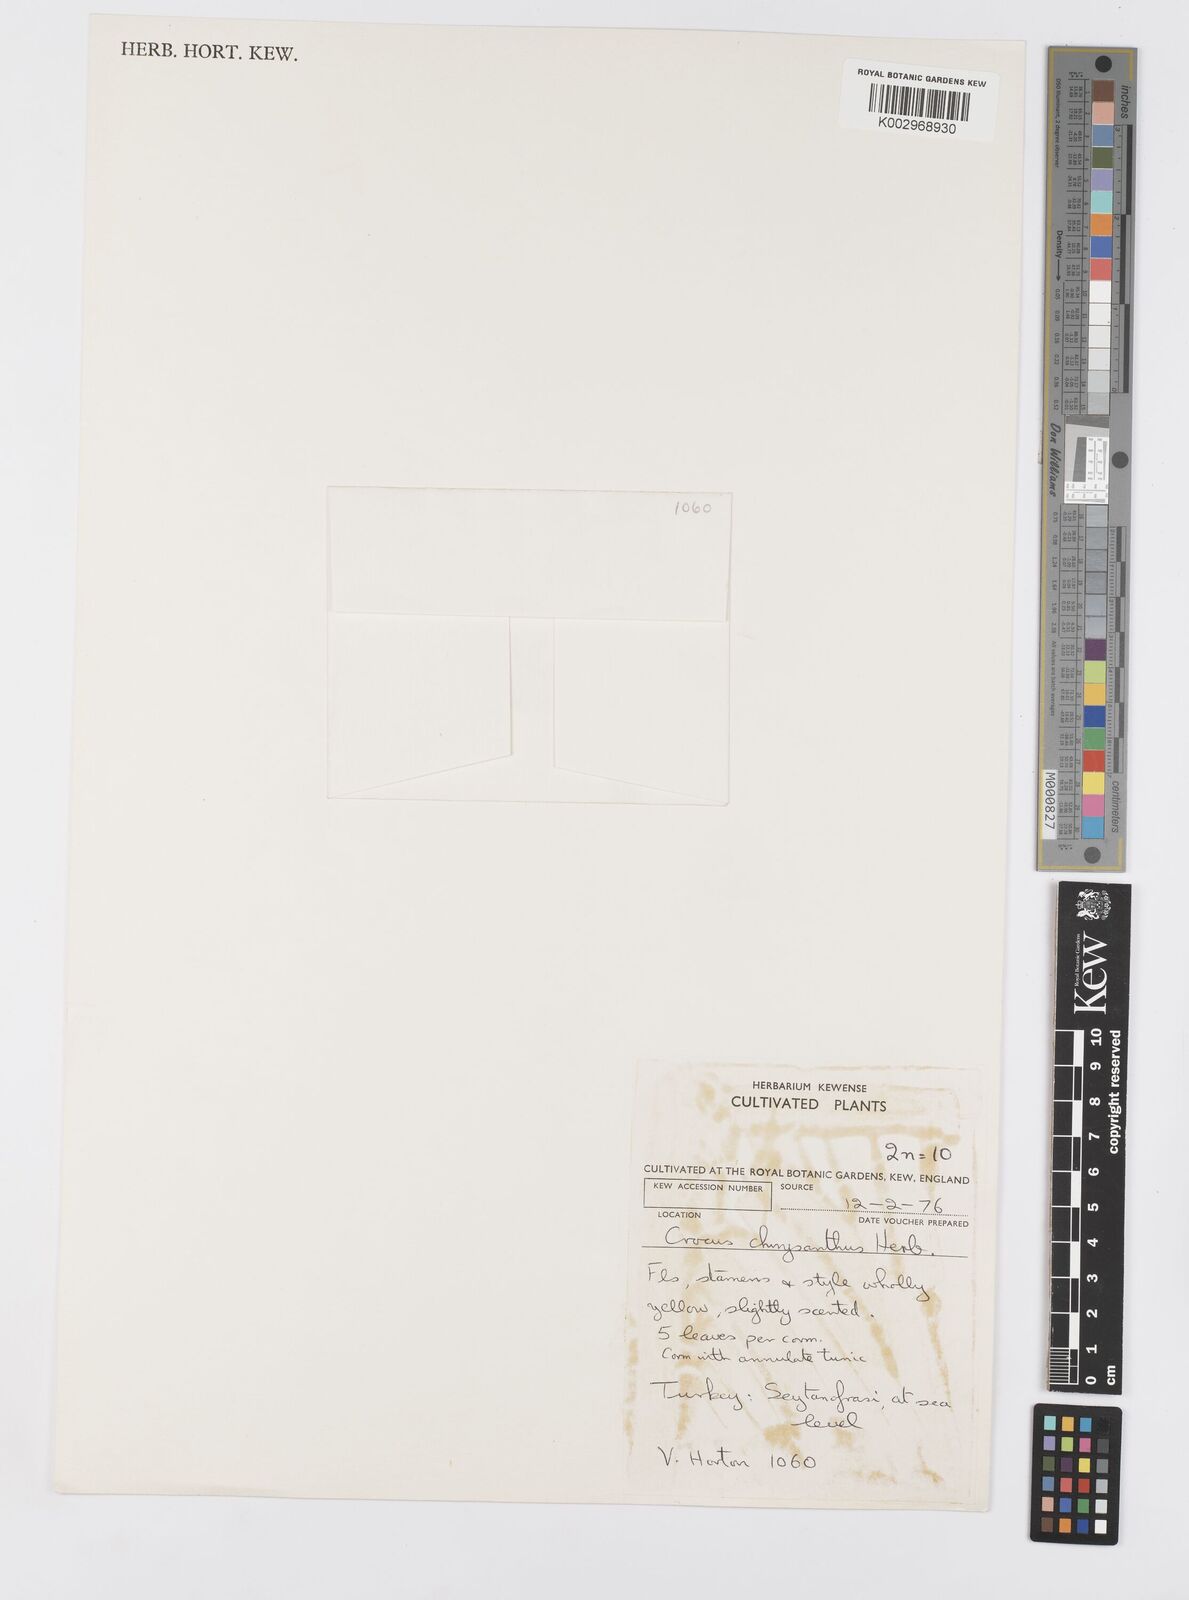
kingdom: Plantae
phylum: Tracheophyta
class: Liliopsida
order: Asparagales
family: Iridaceae
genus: Crocus
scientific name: Crocus
